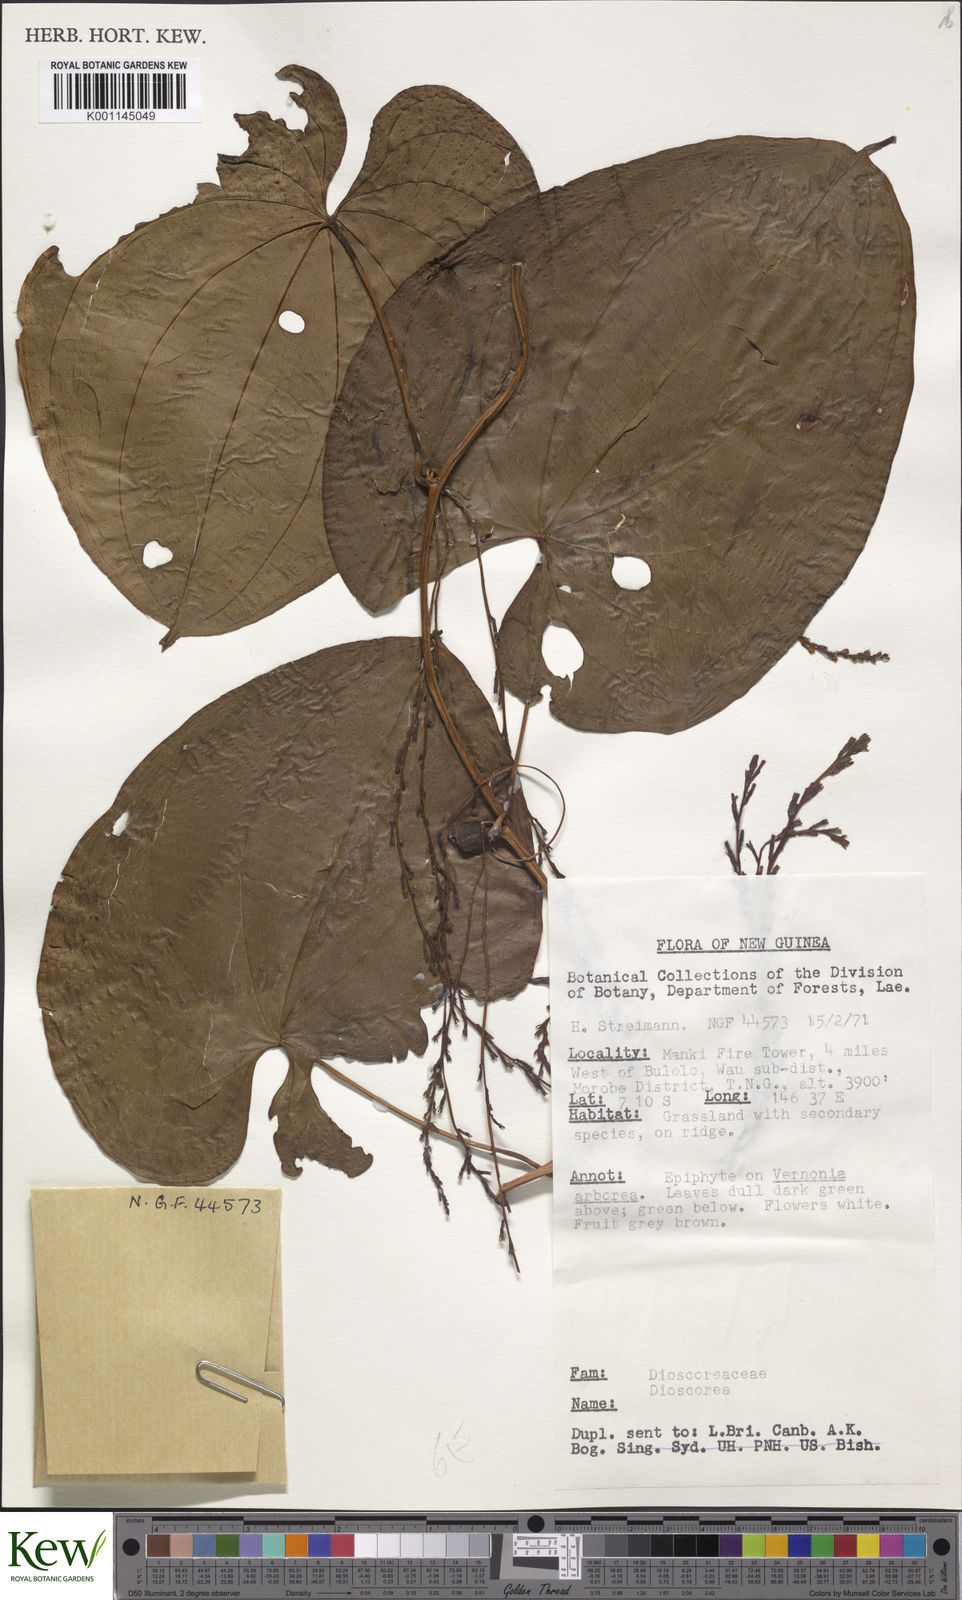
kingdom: Plantae
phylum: Tracheophyta
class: Liliopsida
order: Dioscoreales
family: Dioscoreaceae
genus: Dioscorea
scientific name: Dioscorea
